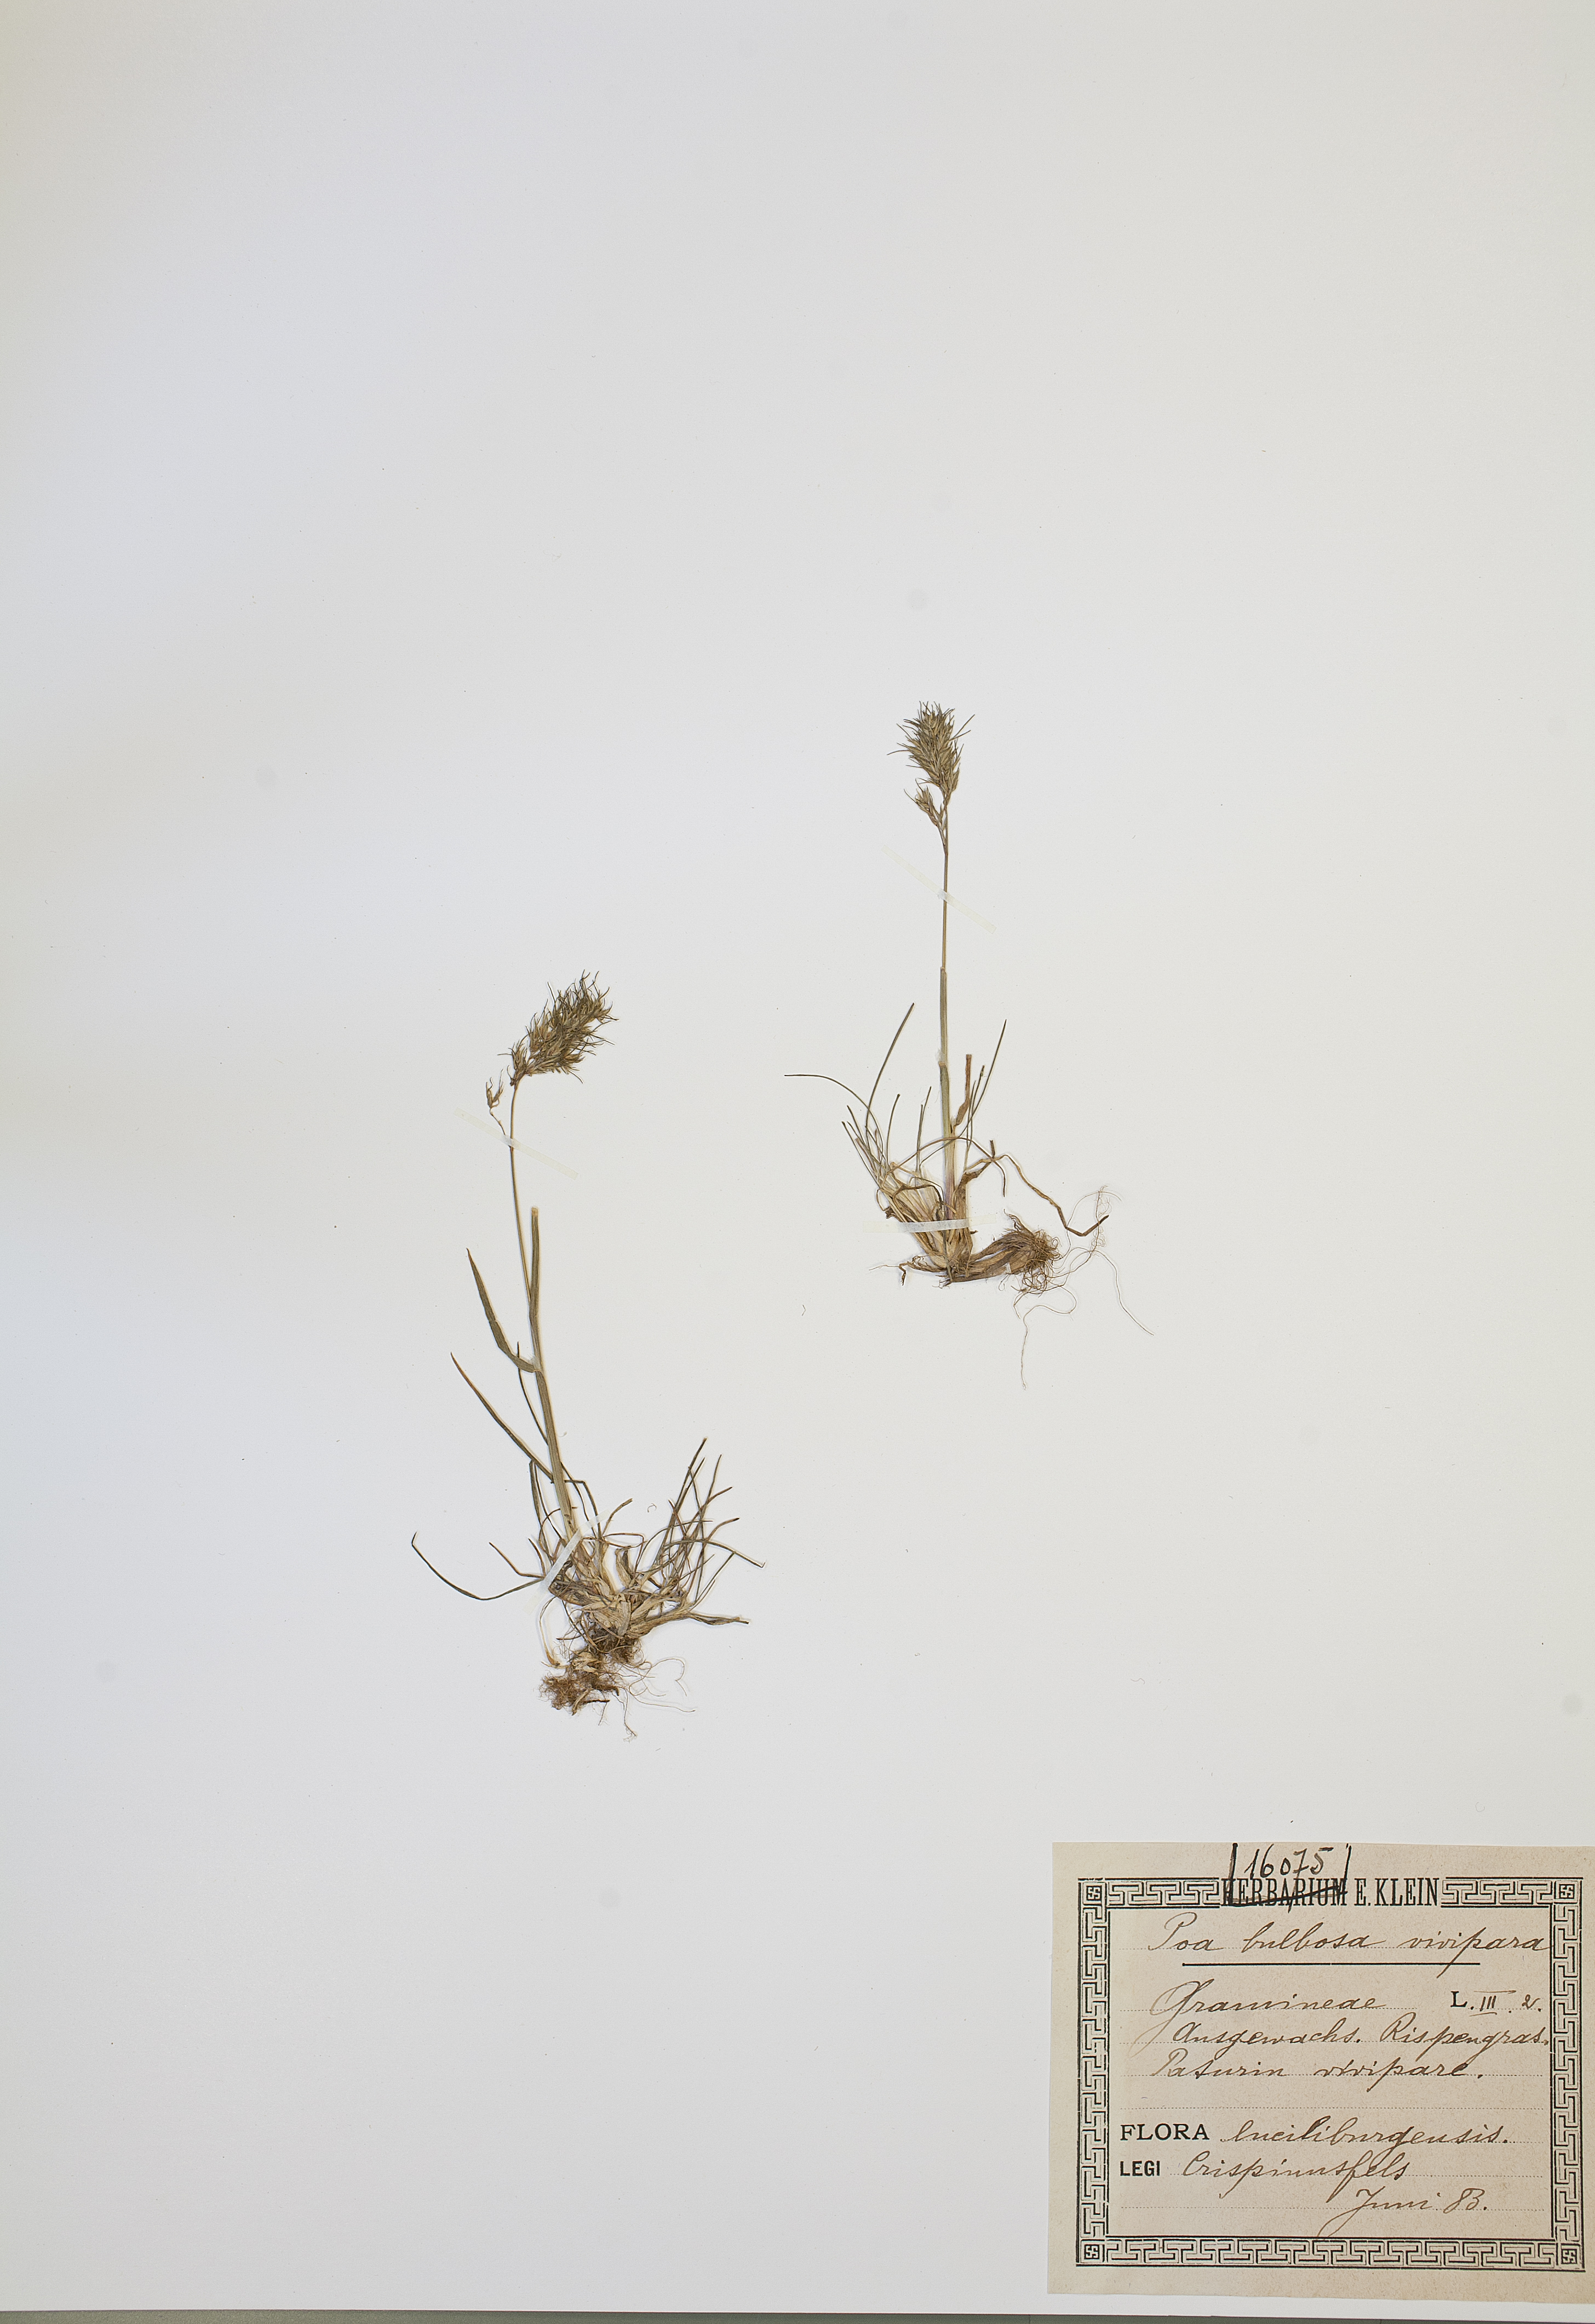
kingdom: Plantae
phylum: Tracheophyta
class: Liliopsida
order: Poales
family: Poaceae
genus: Poa
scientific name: Poa bulbosa
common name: Bulbous bluegrass
